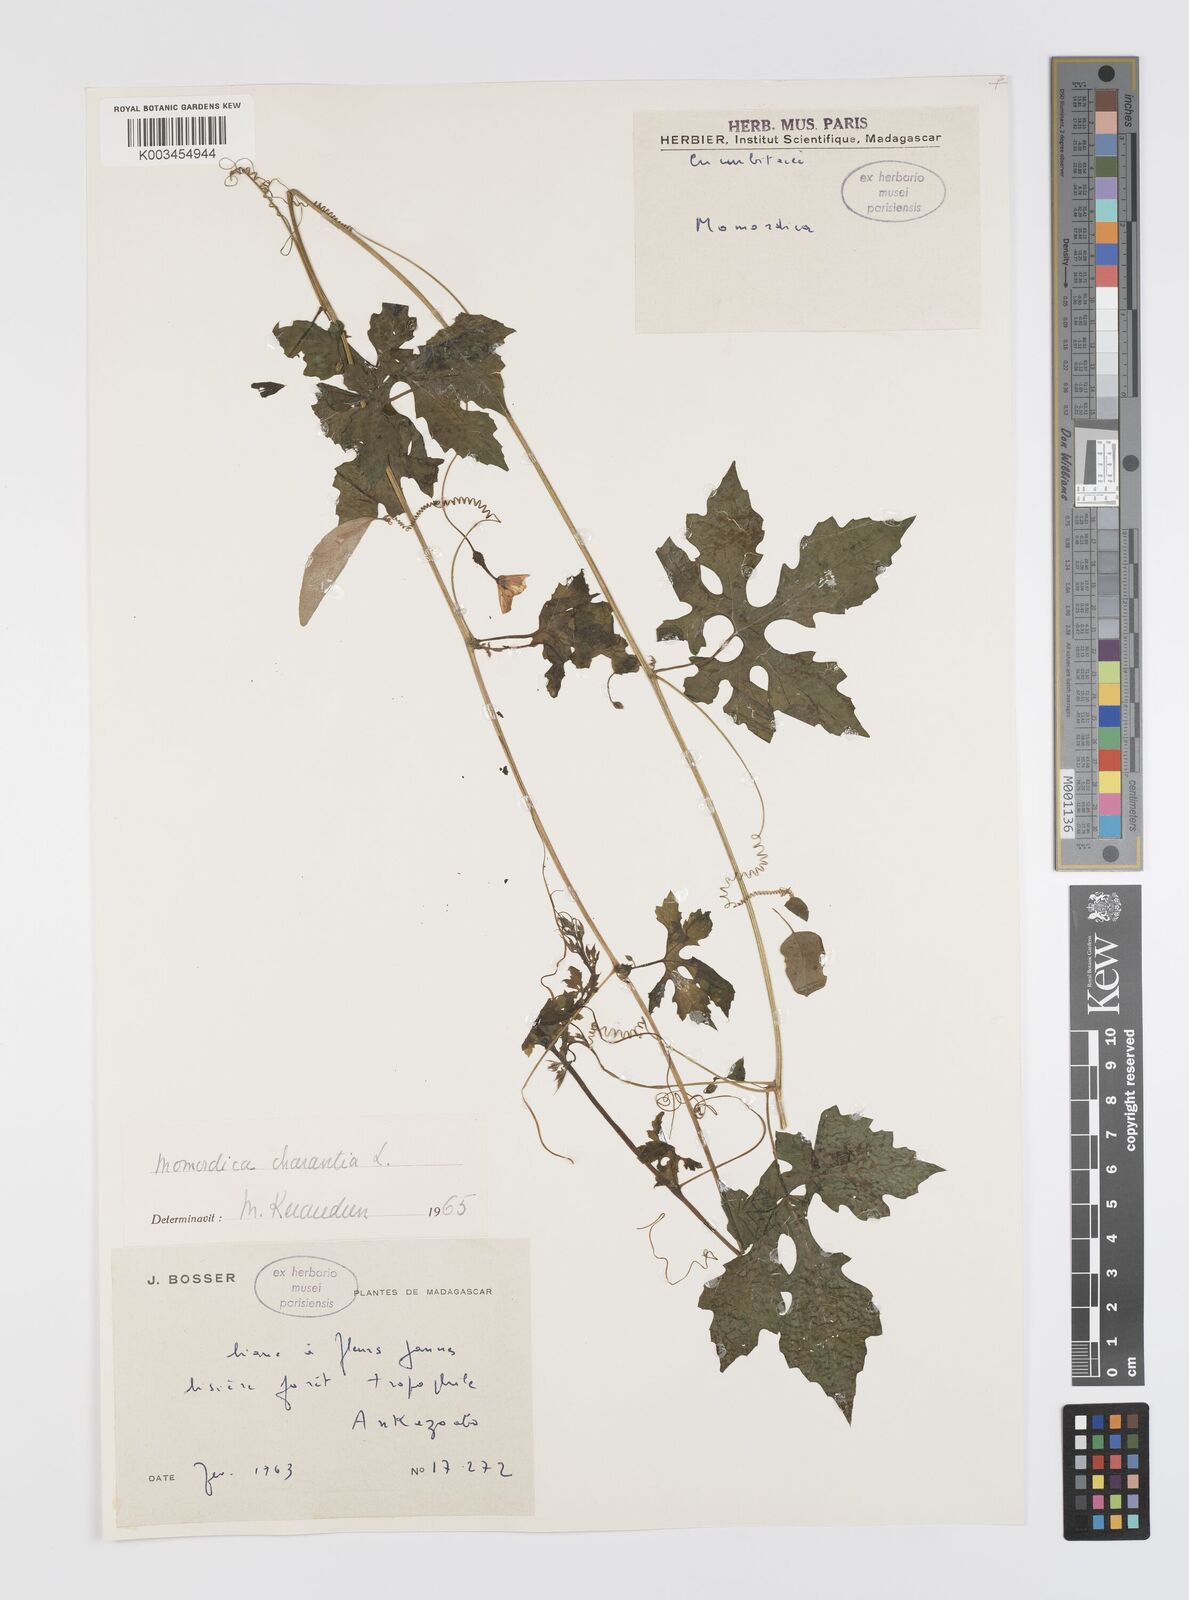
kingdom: Plantae
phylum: Tracheophyta
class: Magnoliopsida
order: Cucurbitales
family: Cucurbitaceae
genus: Momordica
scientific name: Momordica charantia
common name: Balsampear
